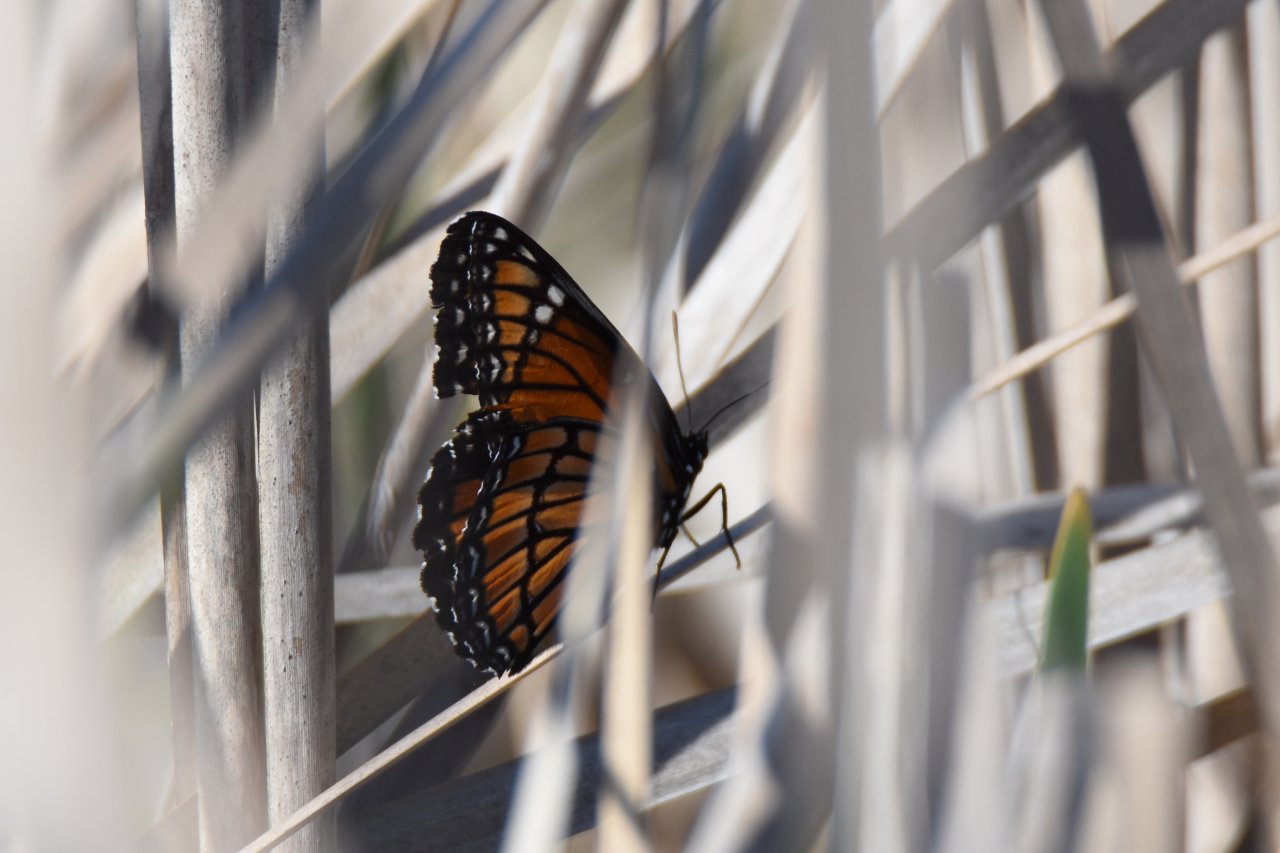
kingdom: Animalia
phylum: Arthropoda
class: Insecta
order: Lepidoptera
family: Nymphalidae
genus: Limenitis
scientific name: Limenitis archippus
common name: Viceroy
